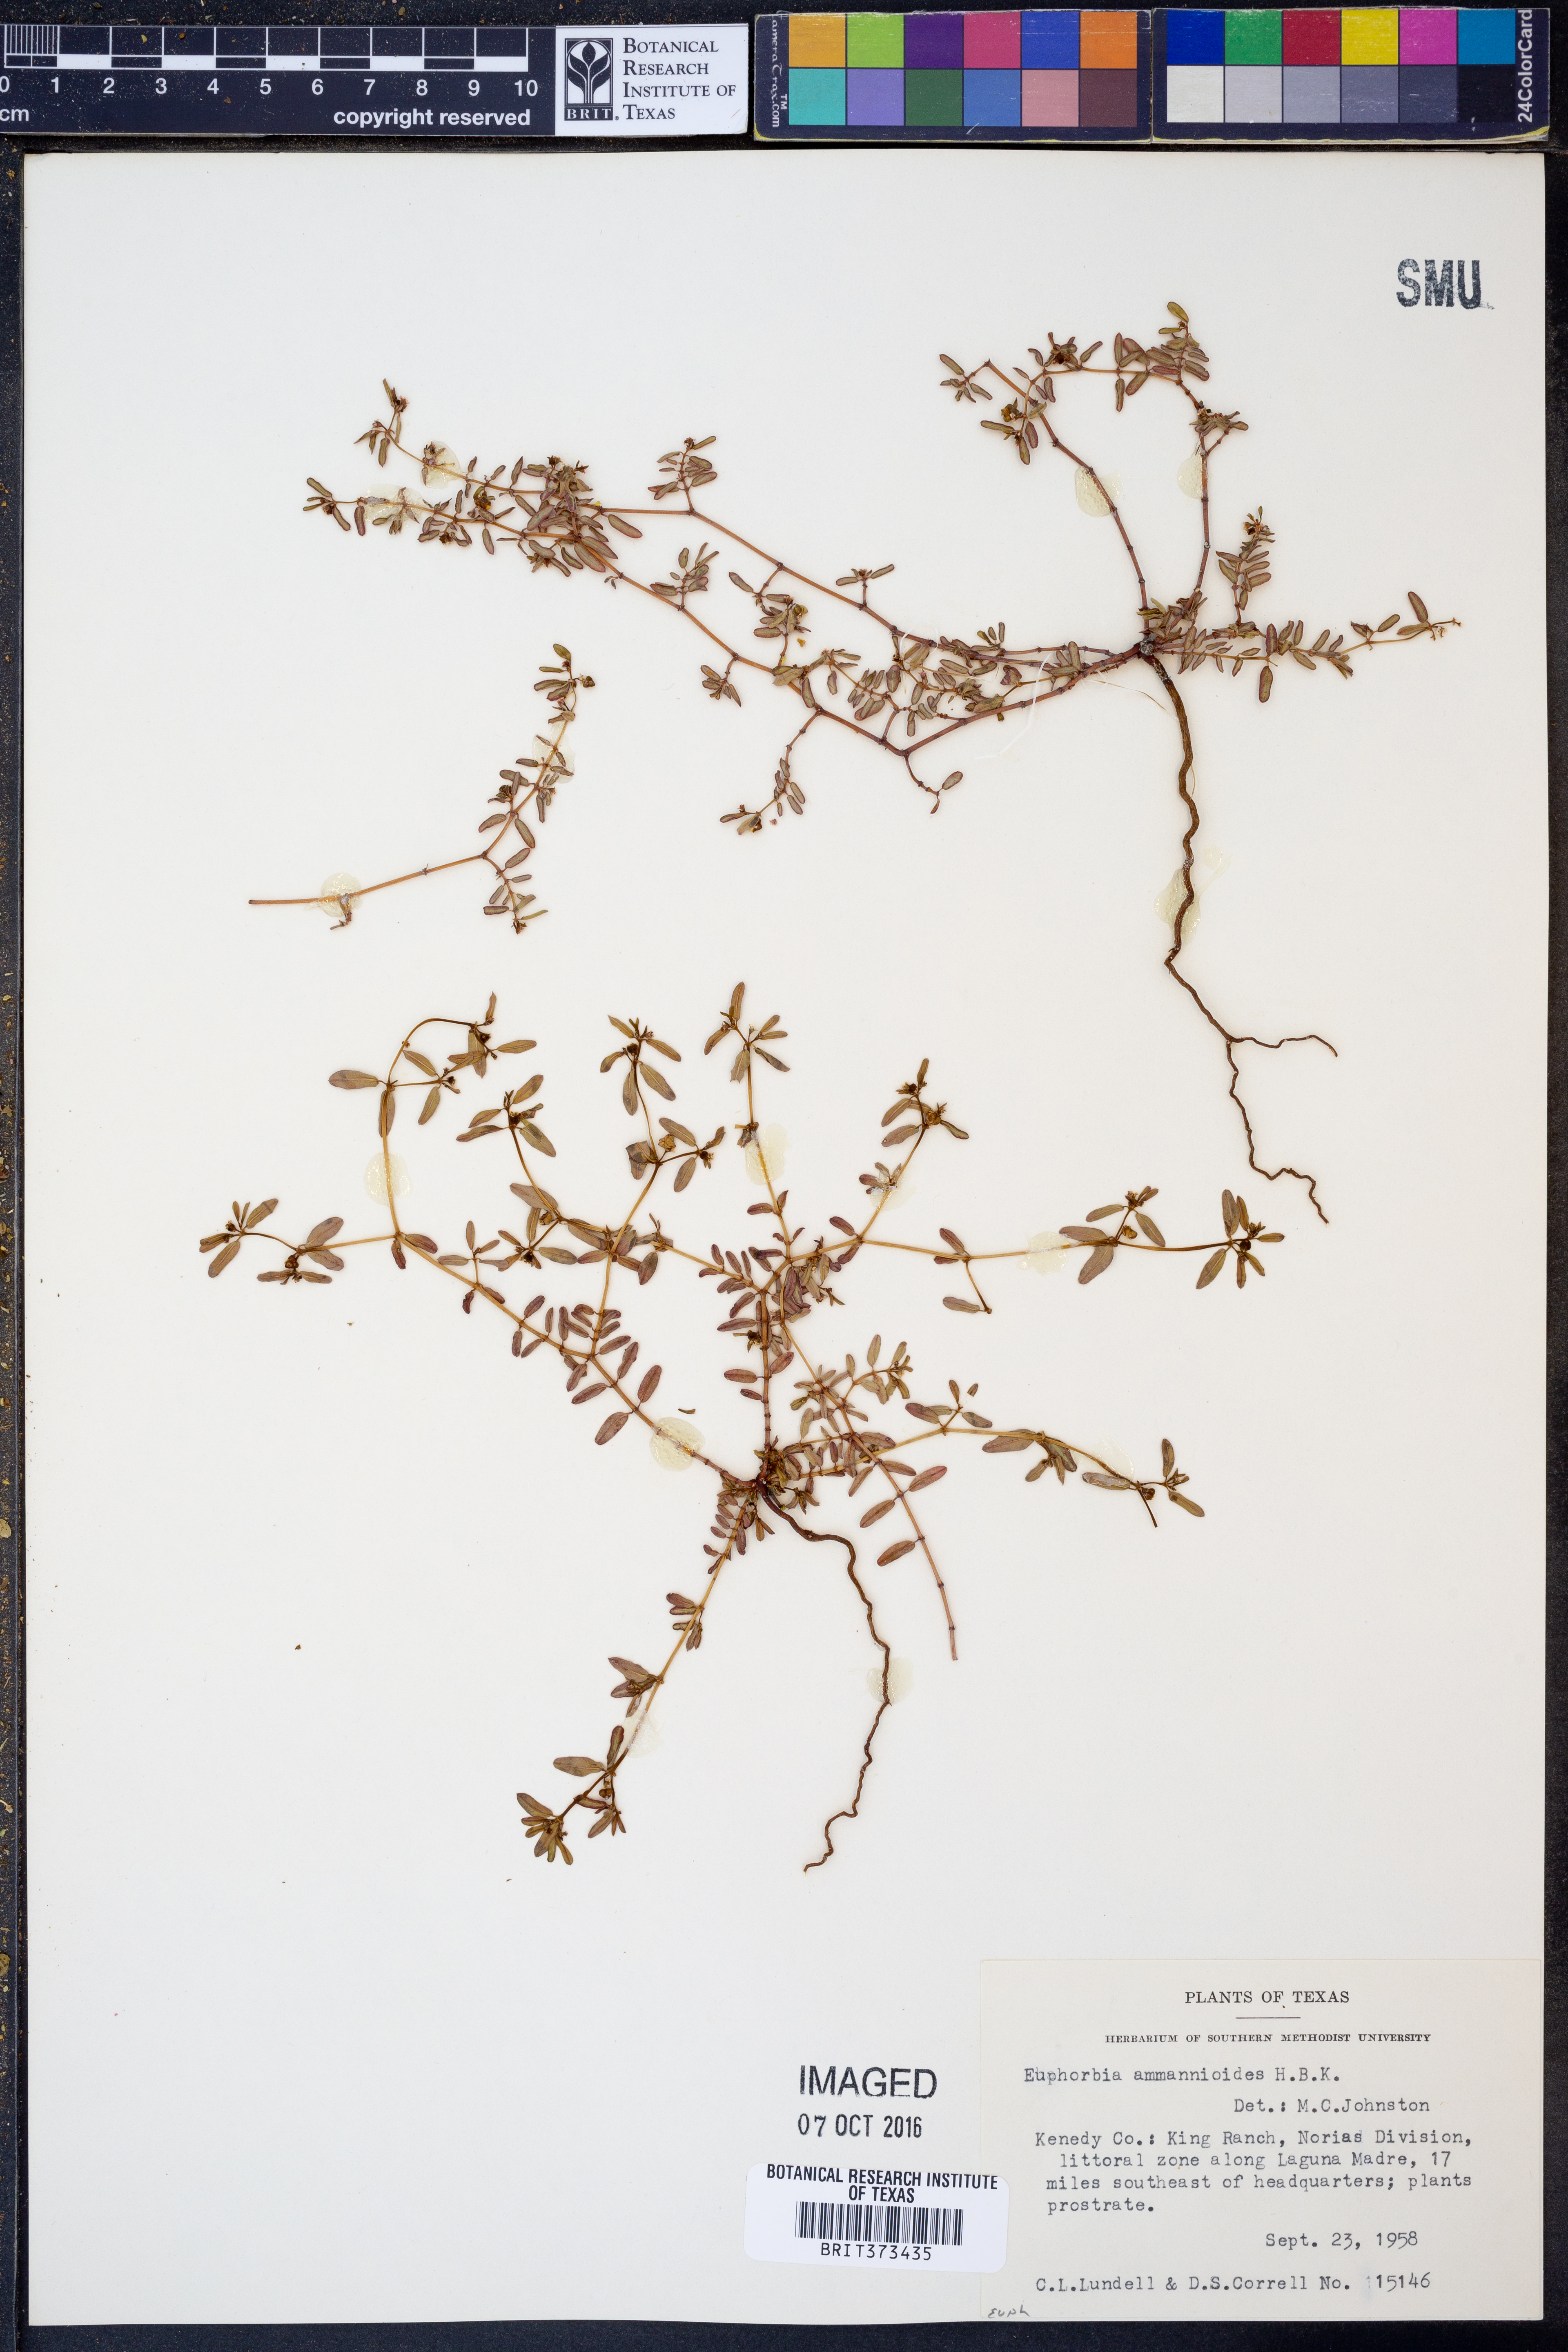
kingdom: Plantae
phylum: Tracheophyta
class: Magnoliopsida
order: Malpighiales
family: Euphorbiaceae
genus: Euphorbia
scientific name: Euphorbia bombensis
